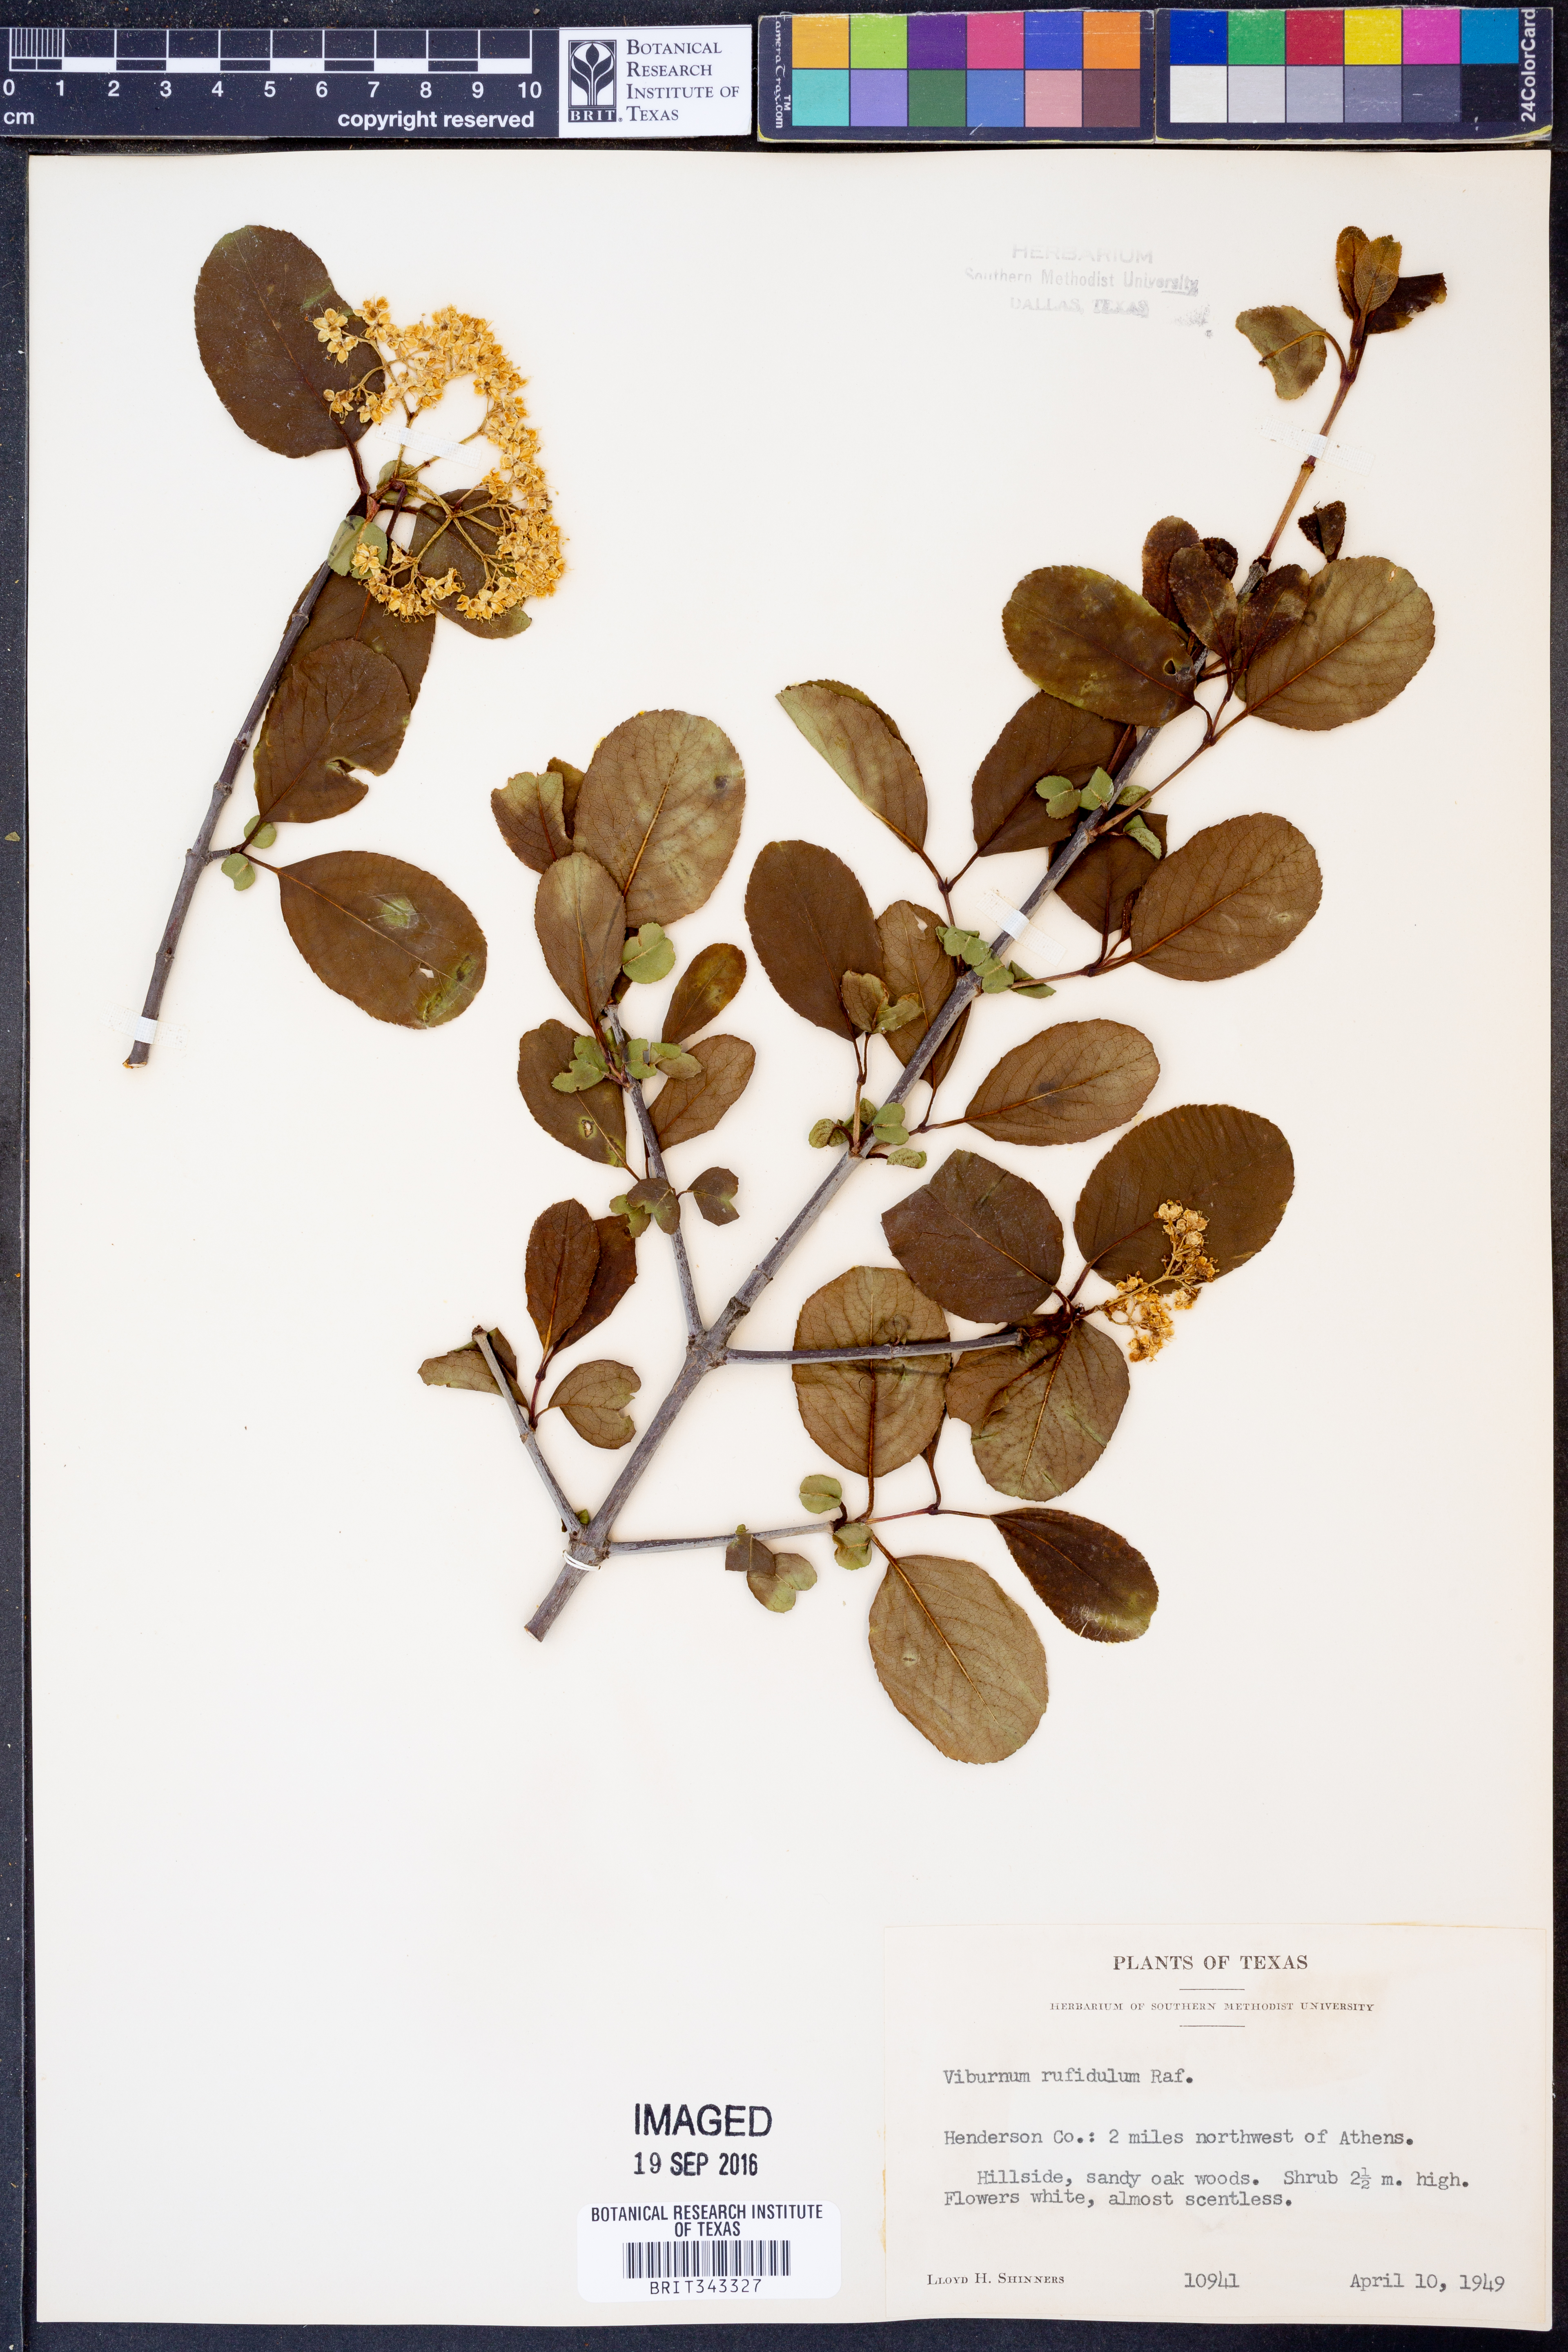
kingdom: Plantae
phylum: Tracheophyta
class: Magnoliopsida
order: Dipsacales
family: Viburnaceae
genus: Viburnum
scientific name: Viburnum rufidulum
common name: Blue haw
